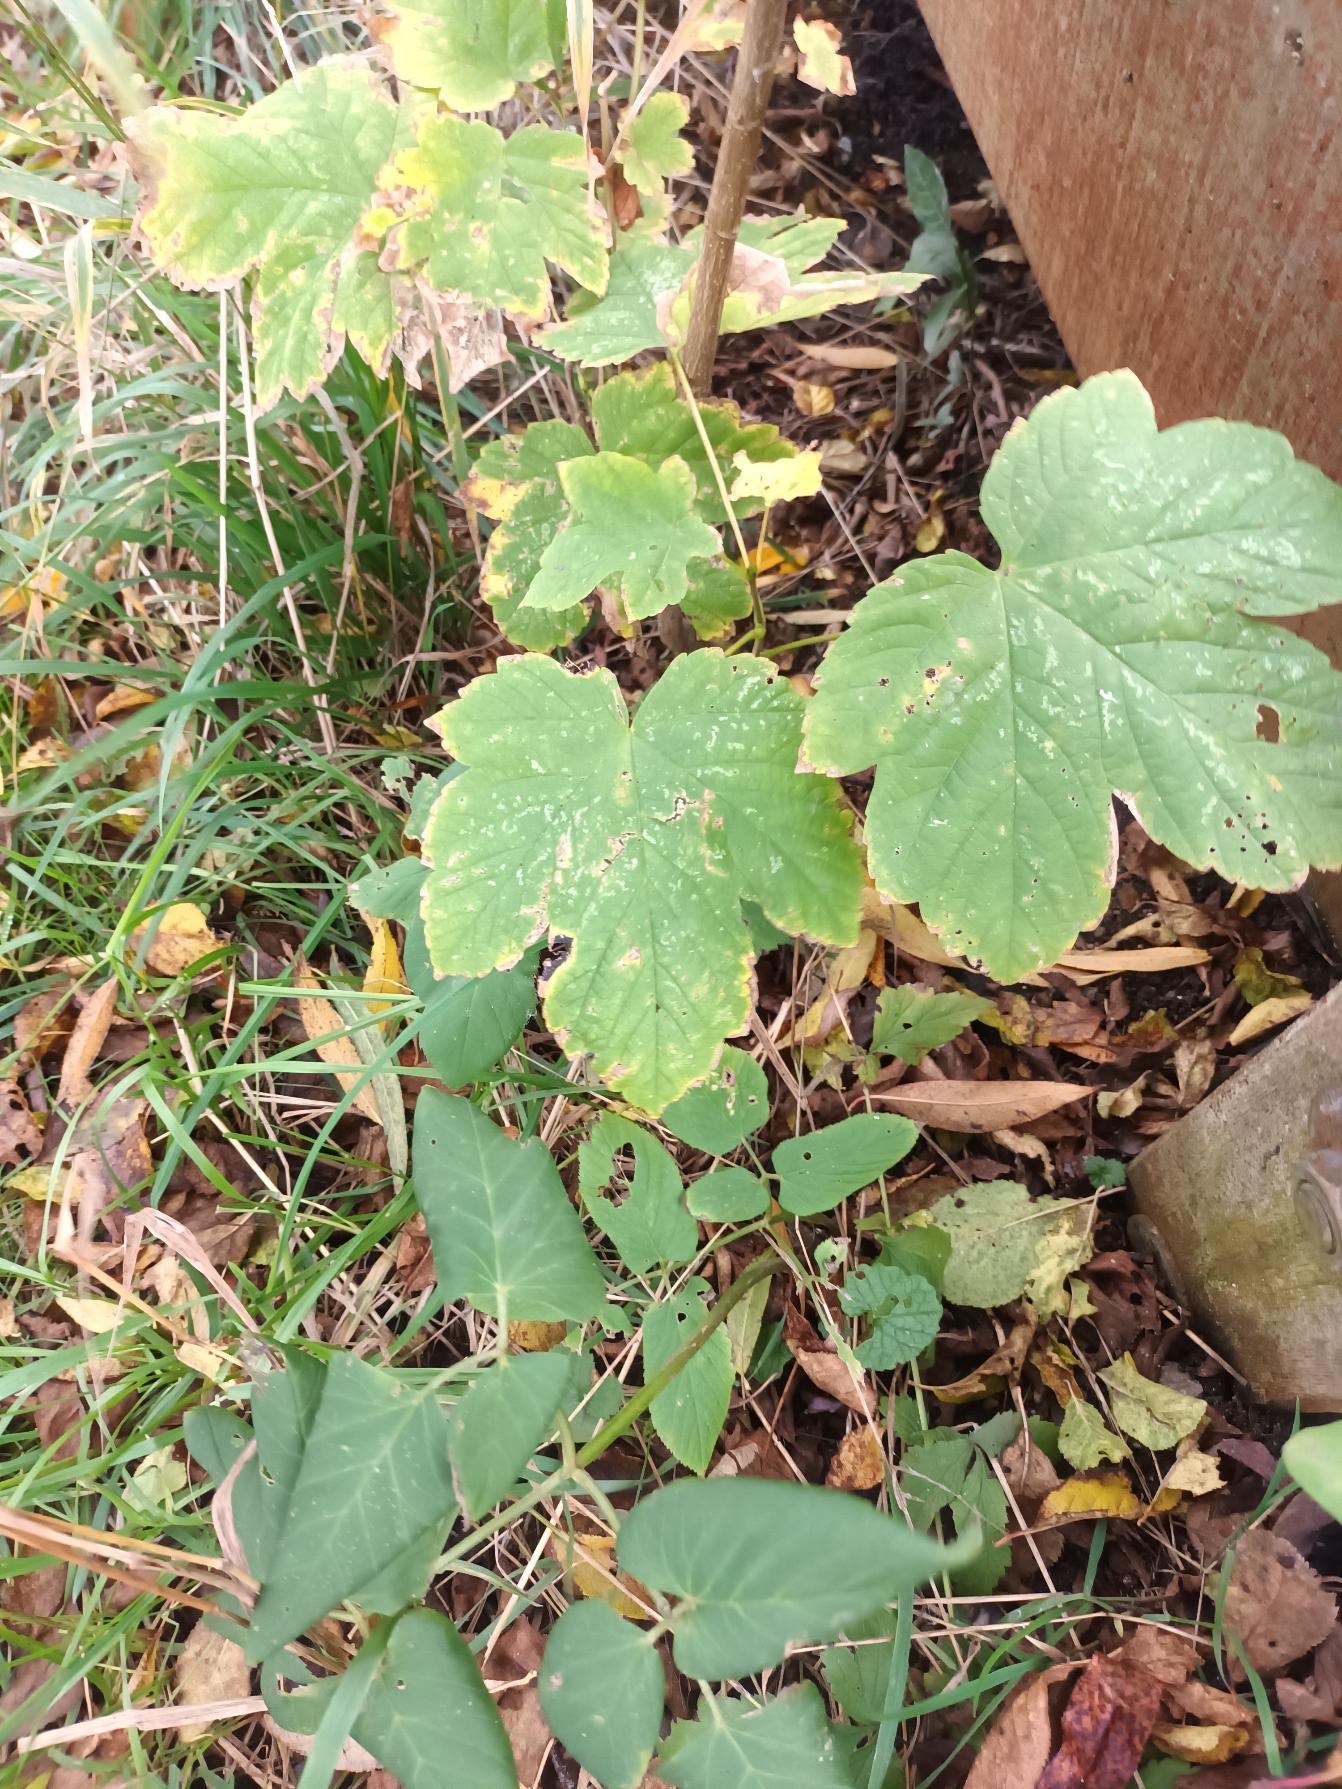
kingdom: Plantae
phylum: Tracheophyta
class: Magnoliopsida
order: Sapindales
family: Sapindaceae
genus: Acer
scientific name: Acer pseudoplatanus
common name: Ahorn
